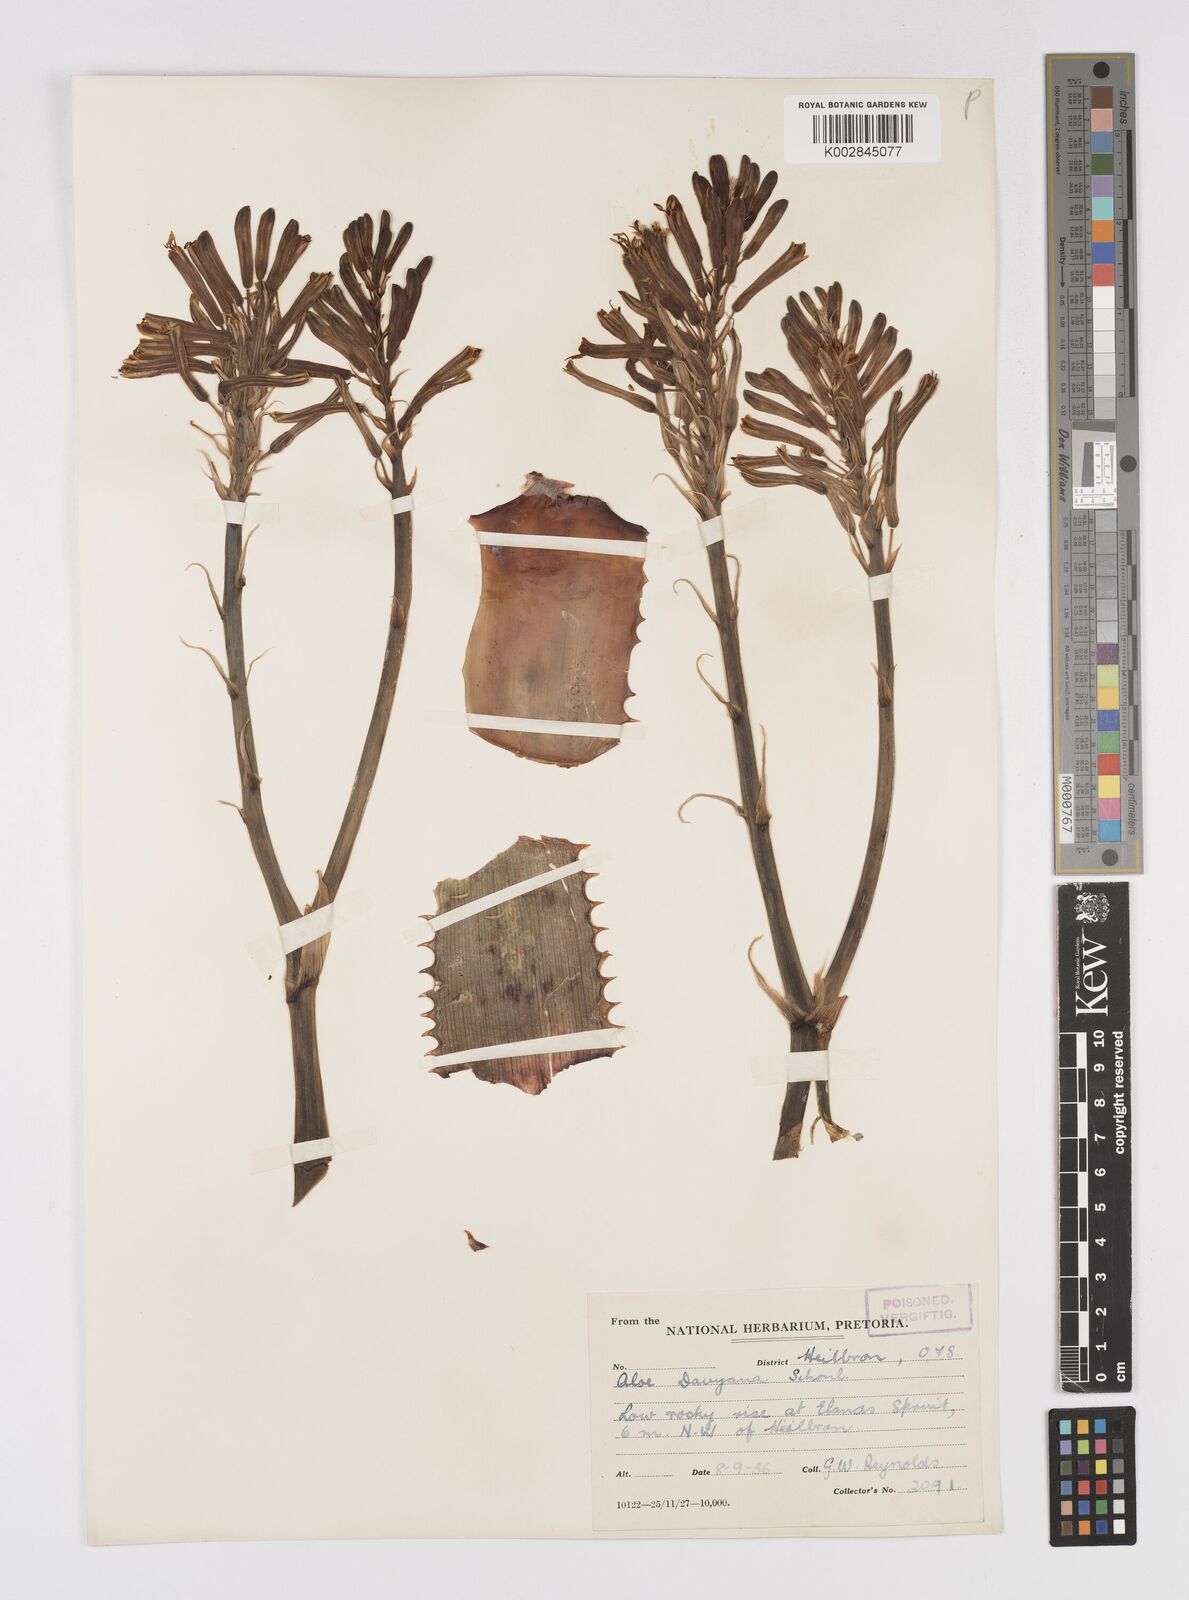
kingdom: Plantae
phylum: Tracheophyta
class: Liliopsida
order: Asparagales
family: Asphodelaceae
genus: Aloe
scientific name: Aloe davyana
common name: Spotted aloe
